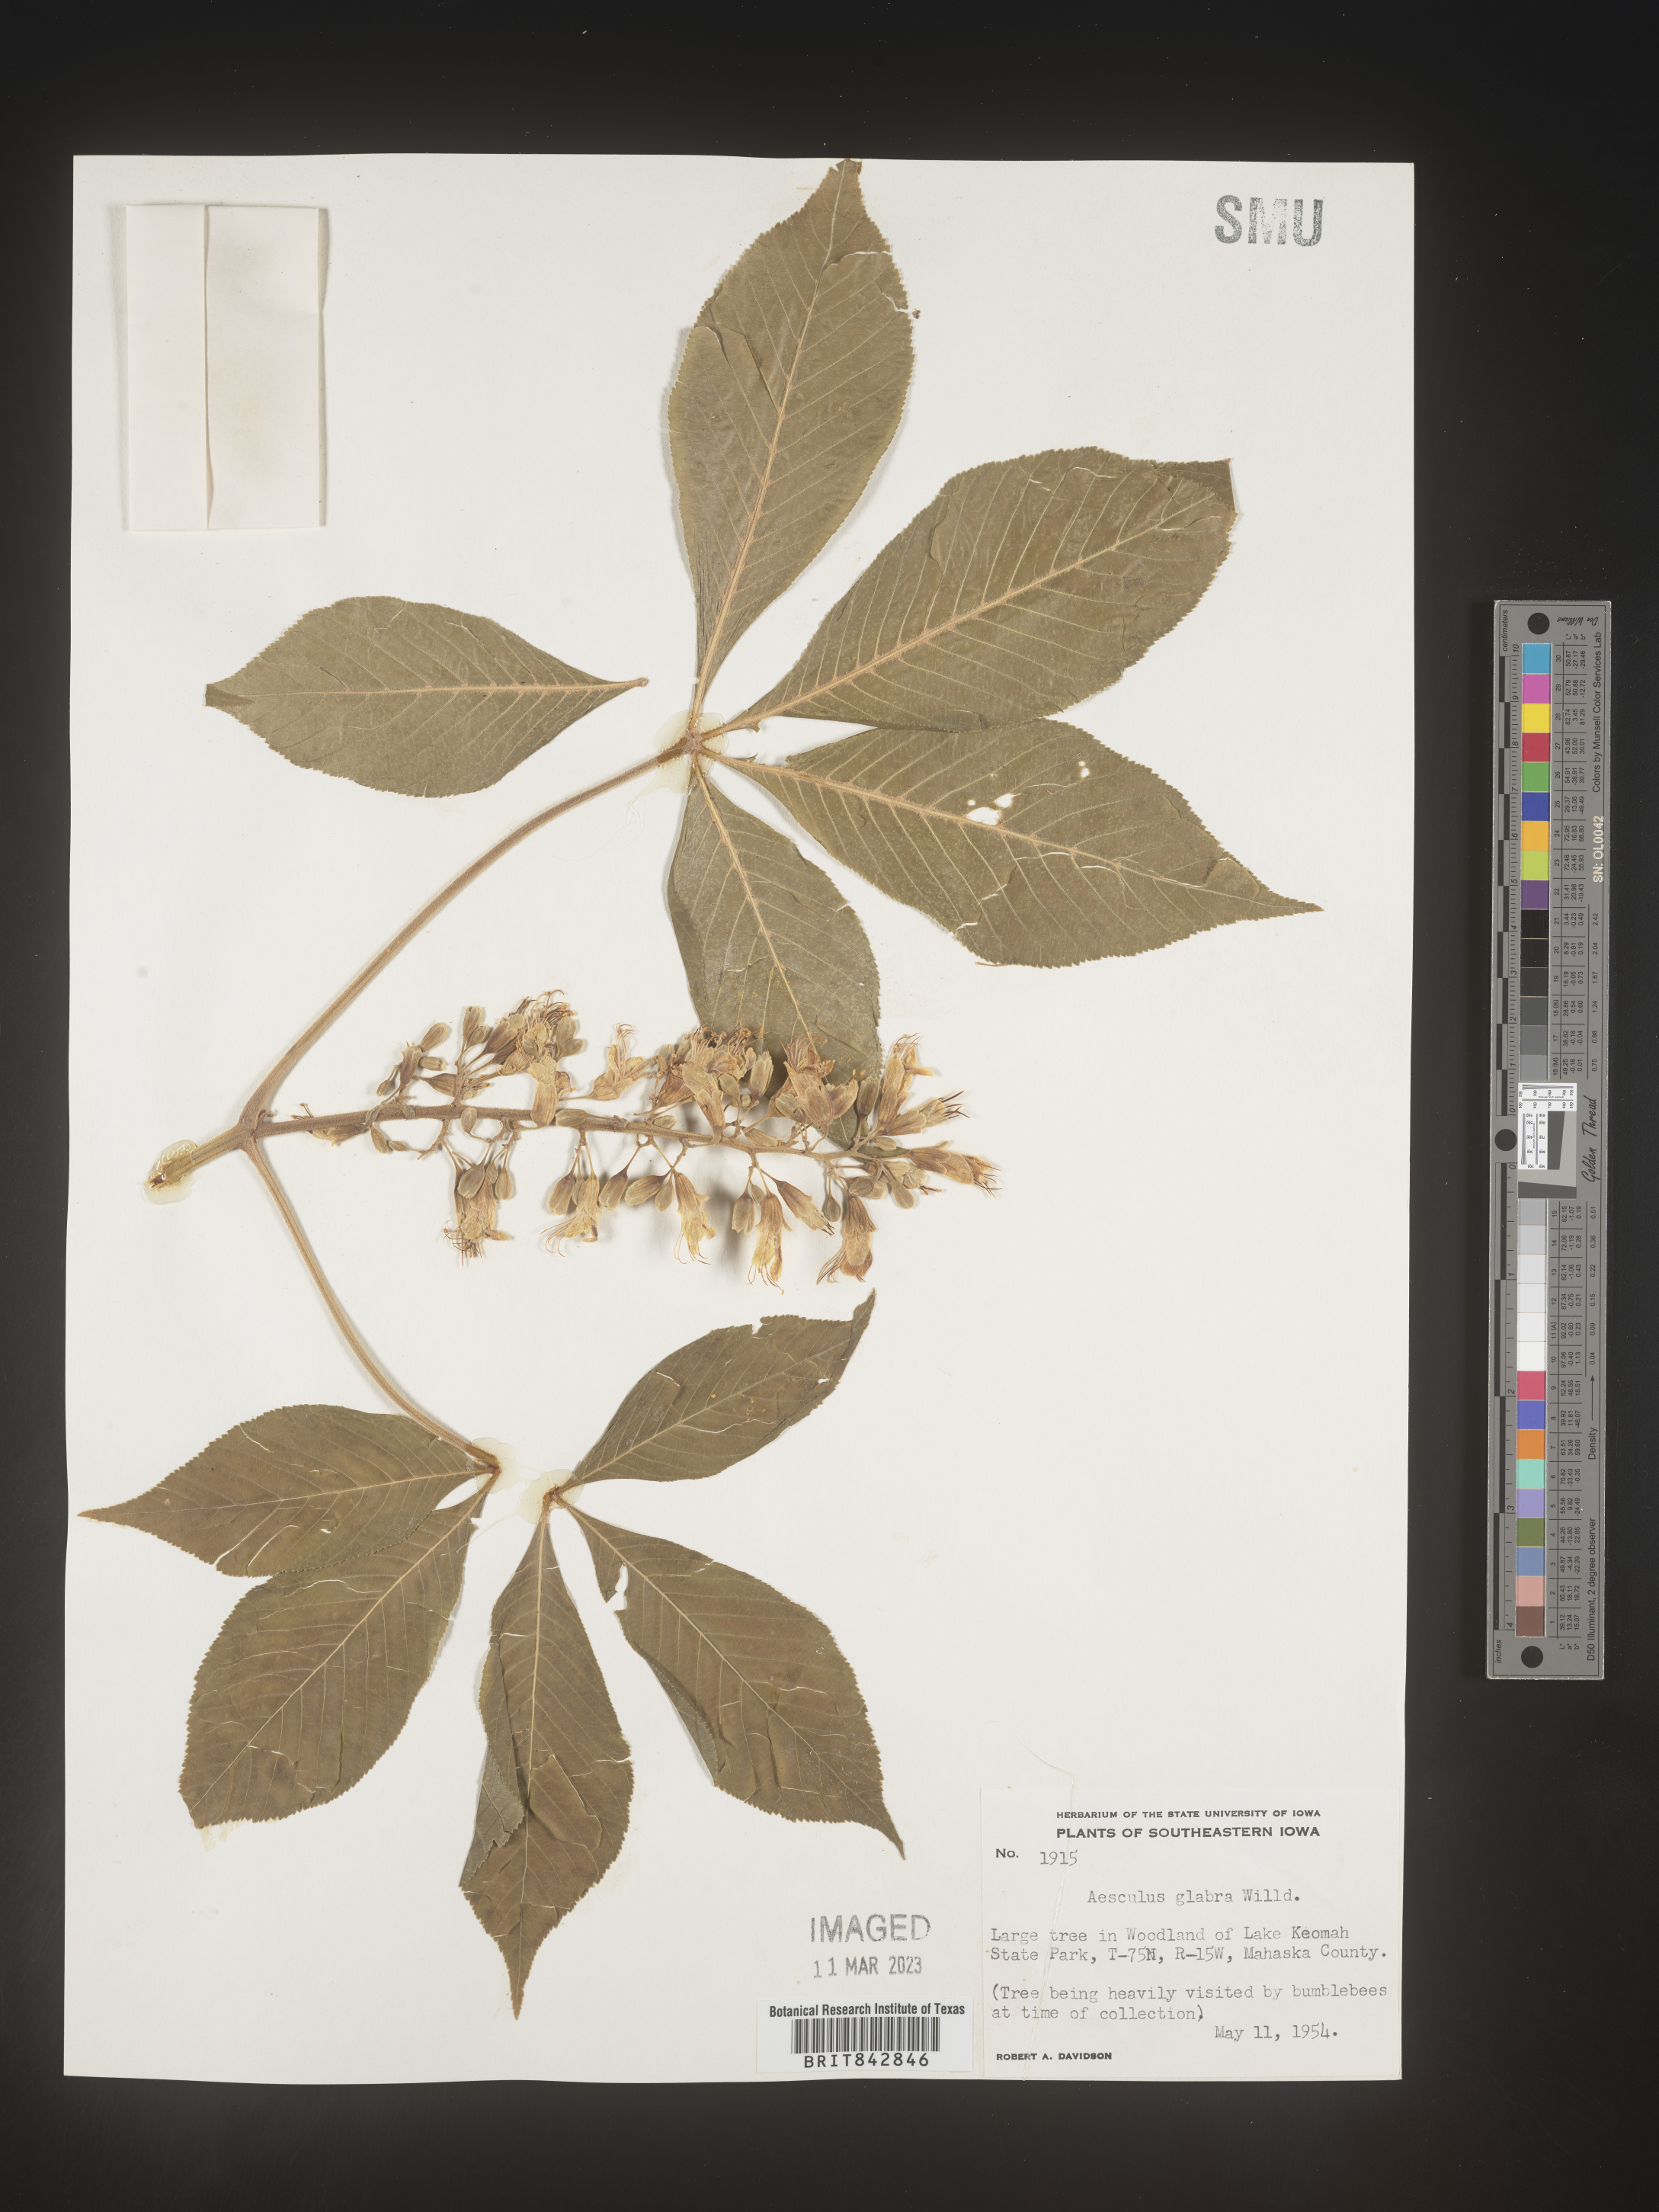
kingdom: Plantae
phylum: Tracheophyta
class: Magnoliopsida
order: Sapindales
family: Sapindaceae
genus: Aesculus
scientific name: Aesculus glabra
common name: Ohio buckeye
